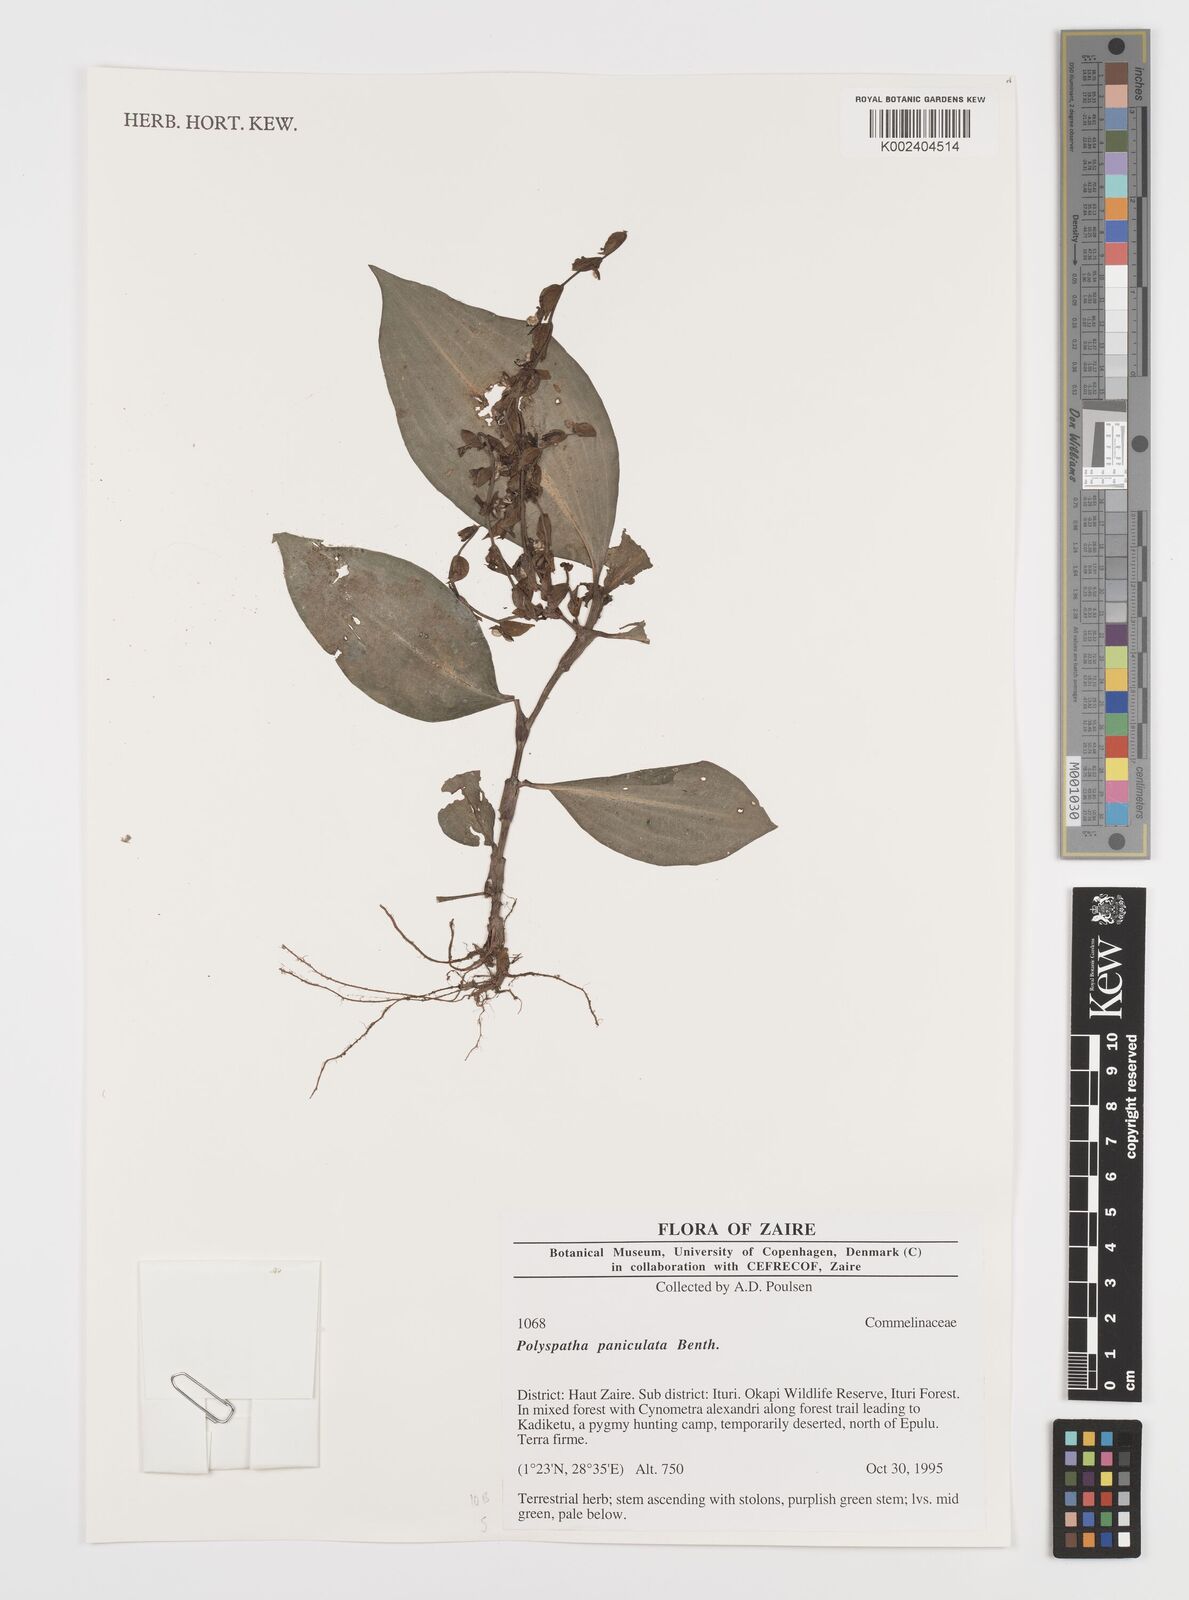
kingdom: Plantae
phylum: Tracheophyta
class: Liliopsida
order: Commelinales
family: Commelinaceae
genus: Polyspatha
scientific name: Polyspatha paniculata
